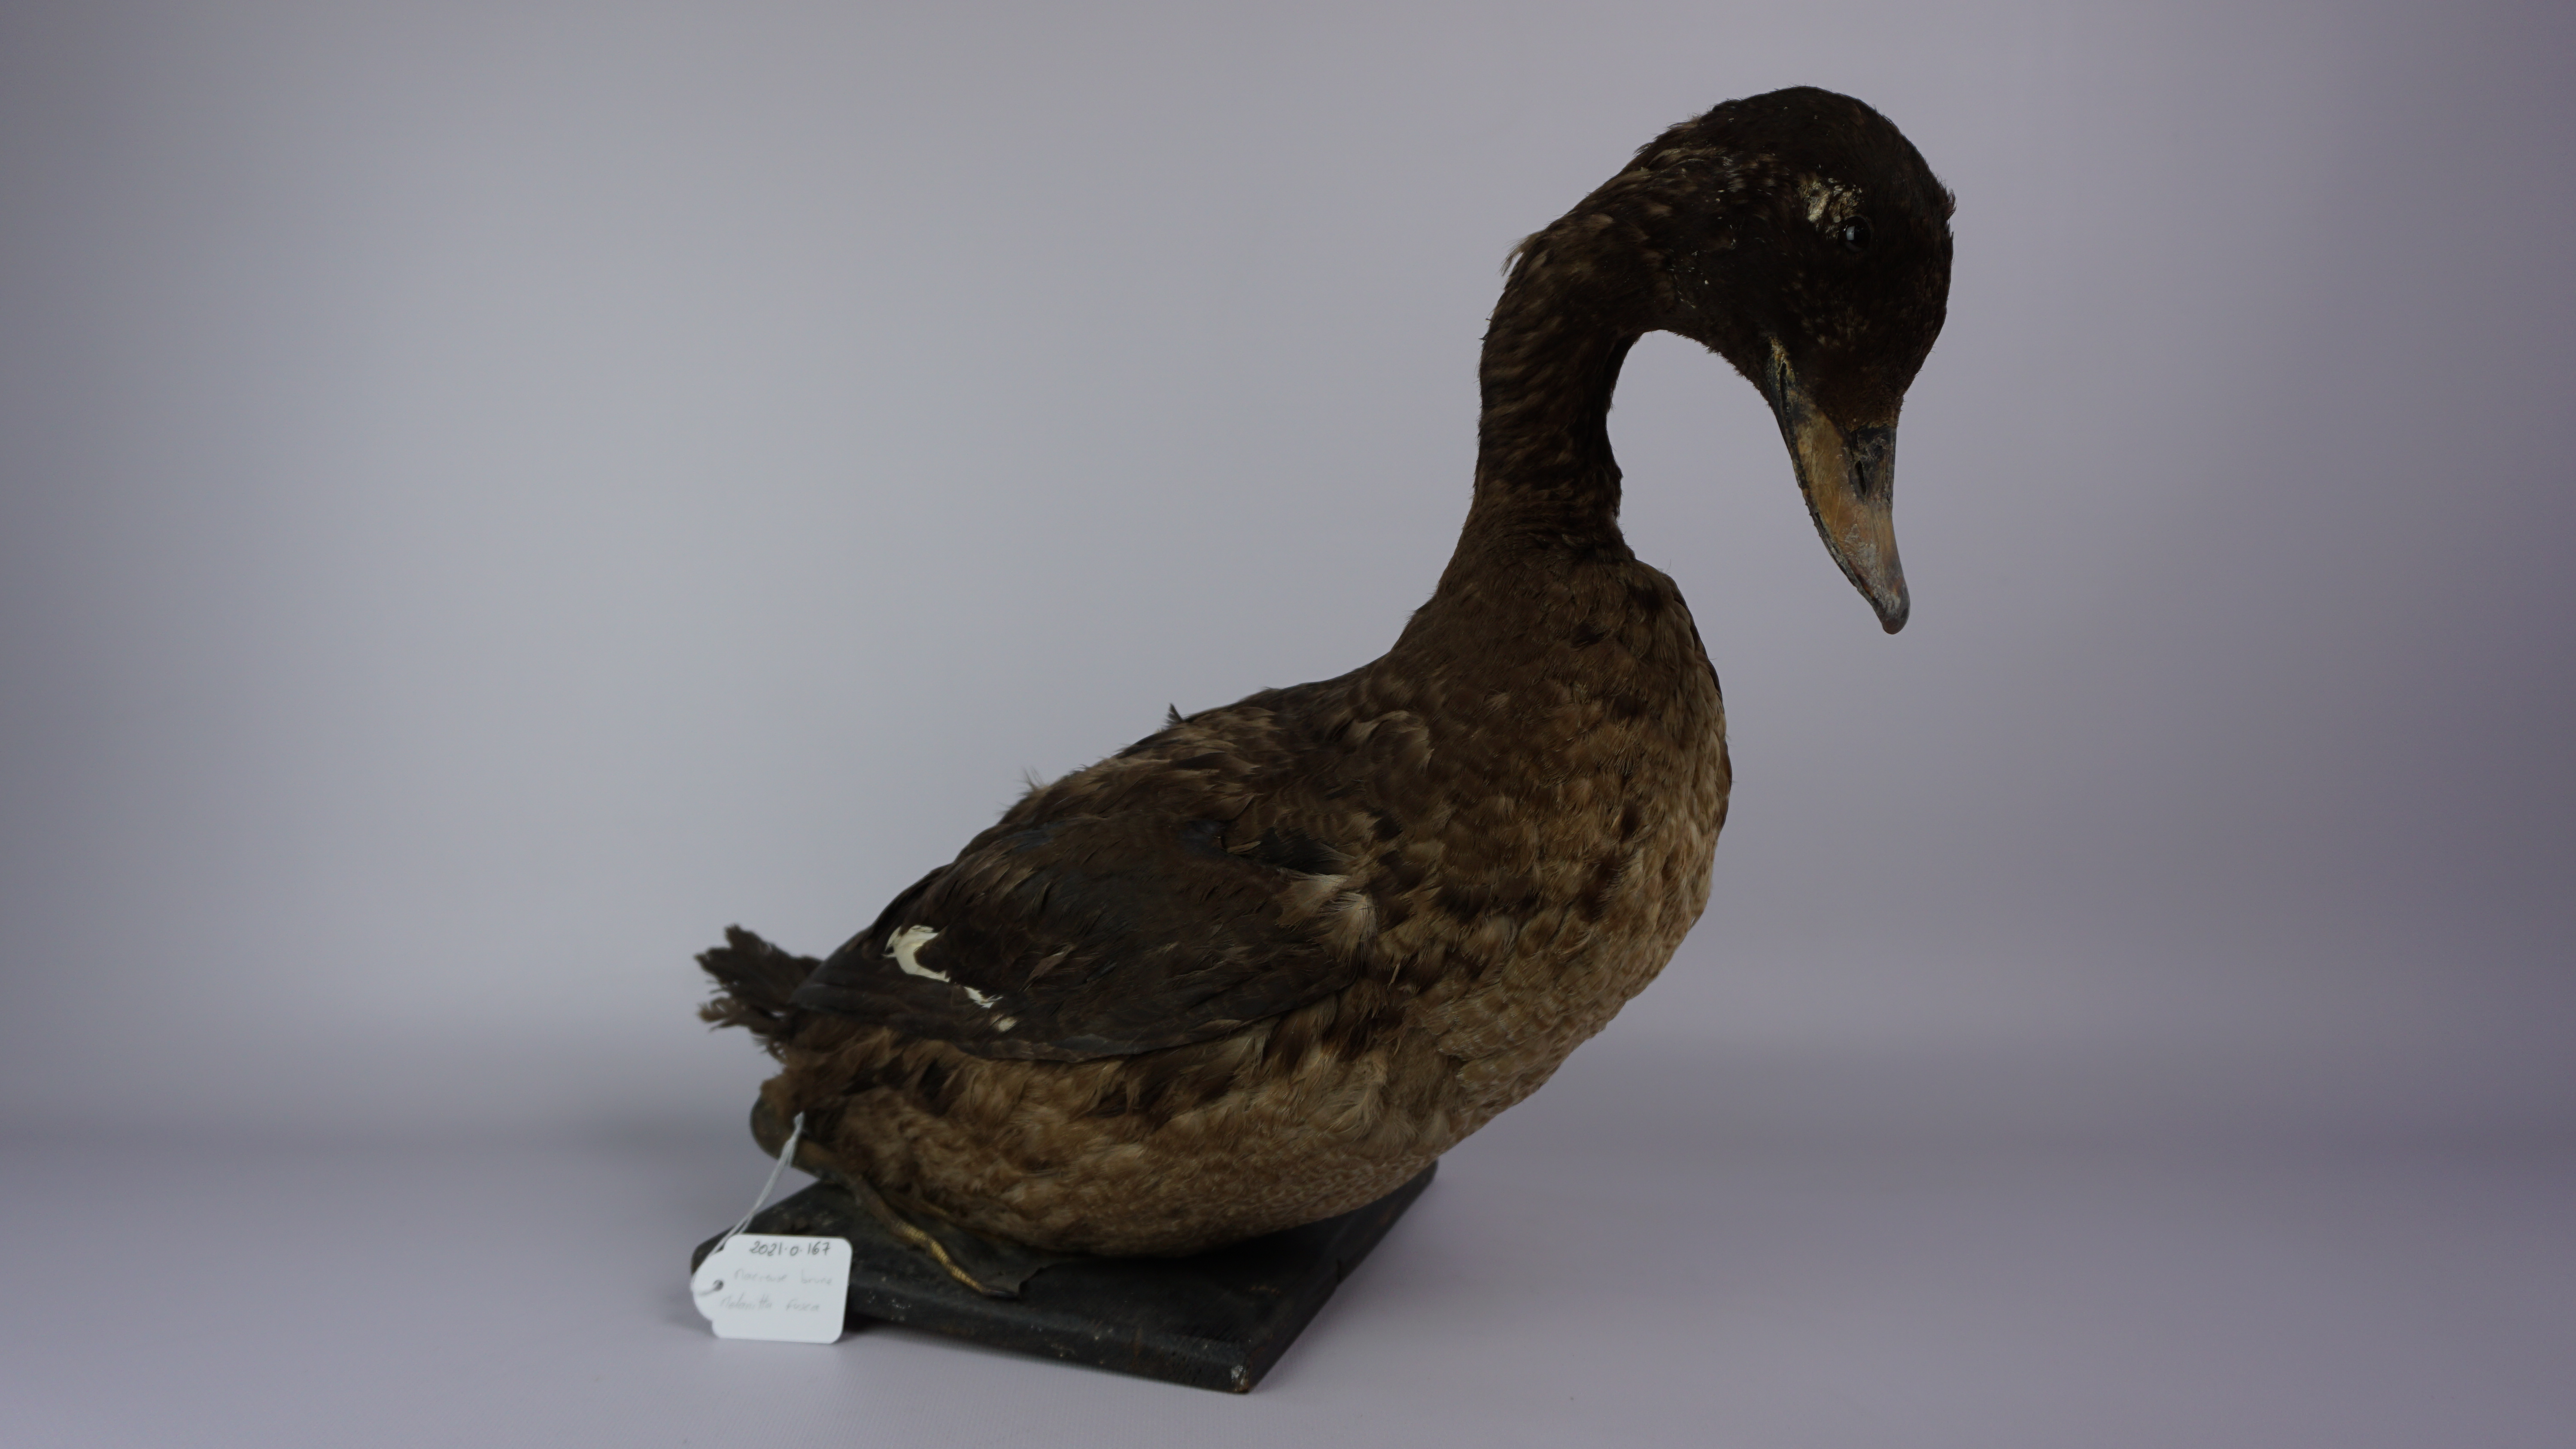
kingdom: Animalia
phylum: Chordata
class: Aves
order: Anseriformes
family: Anatidae
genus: Melanitta
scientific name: Melanitta fusca
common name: Velvet scoter
